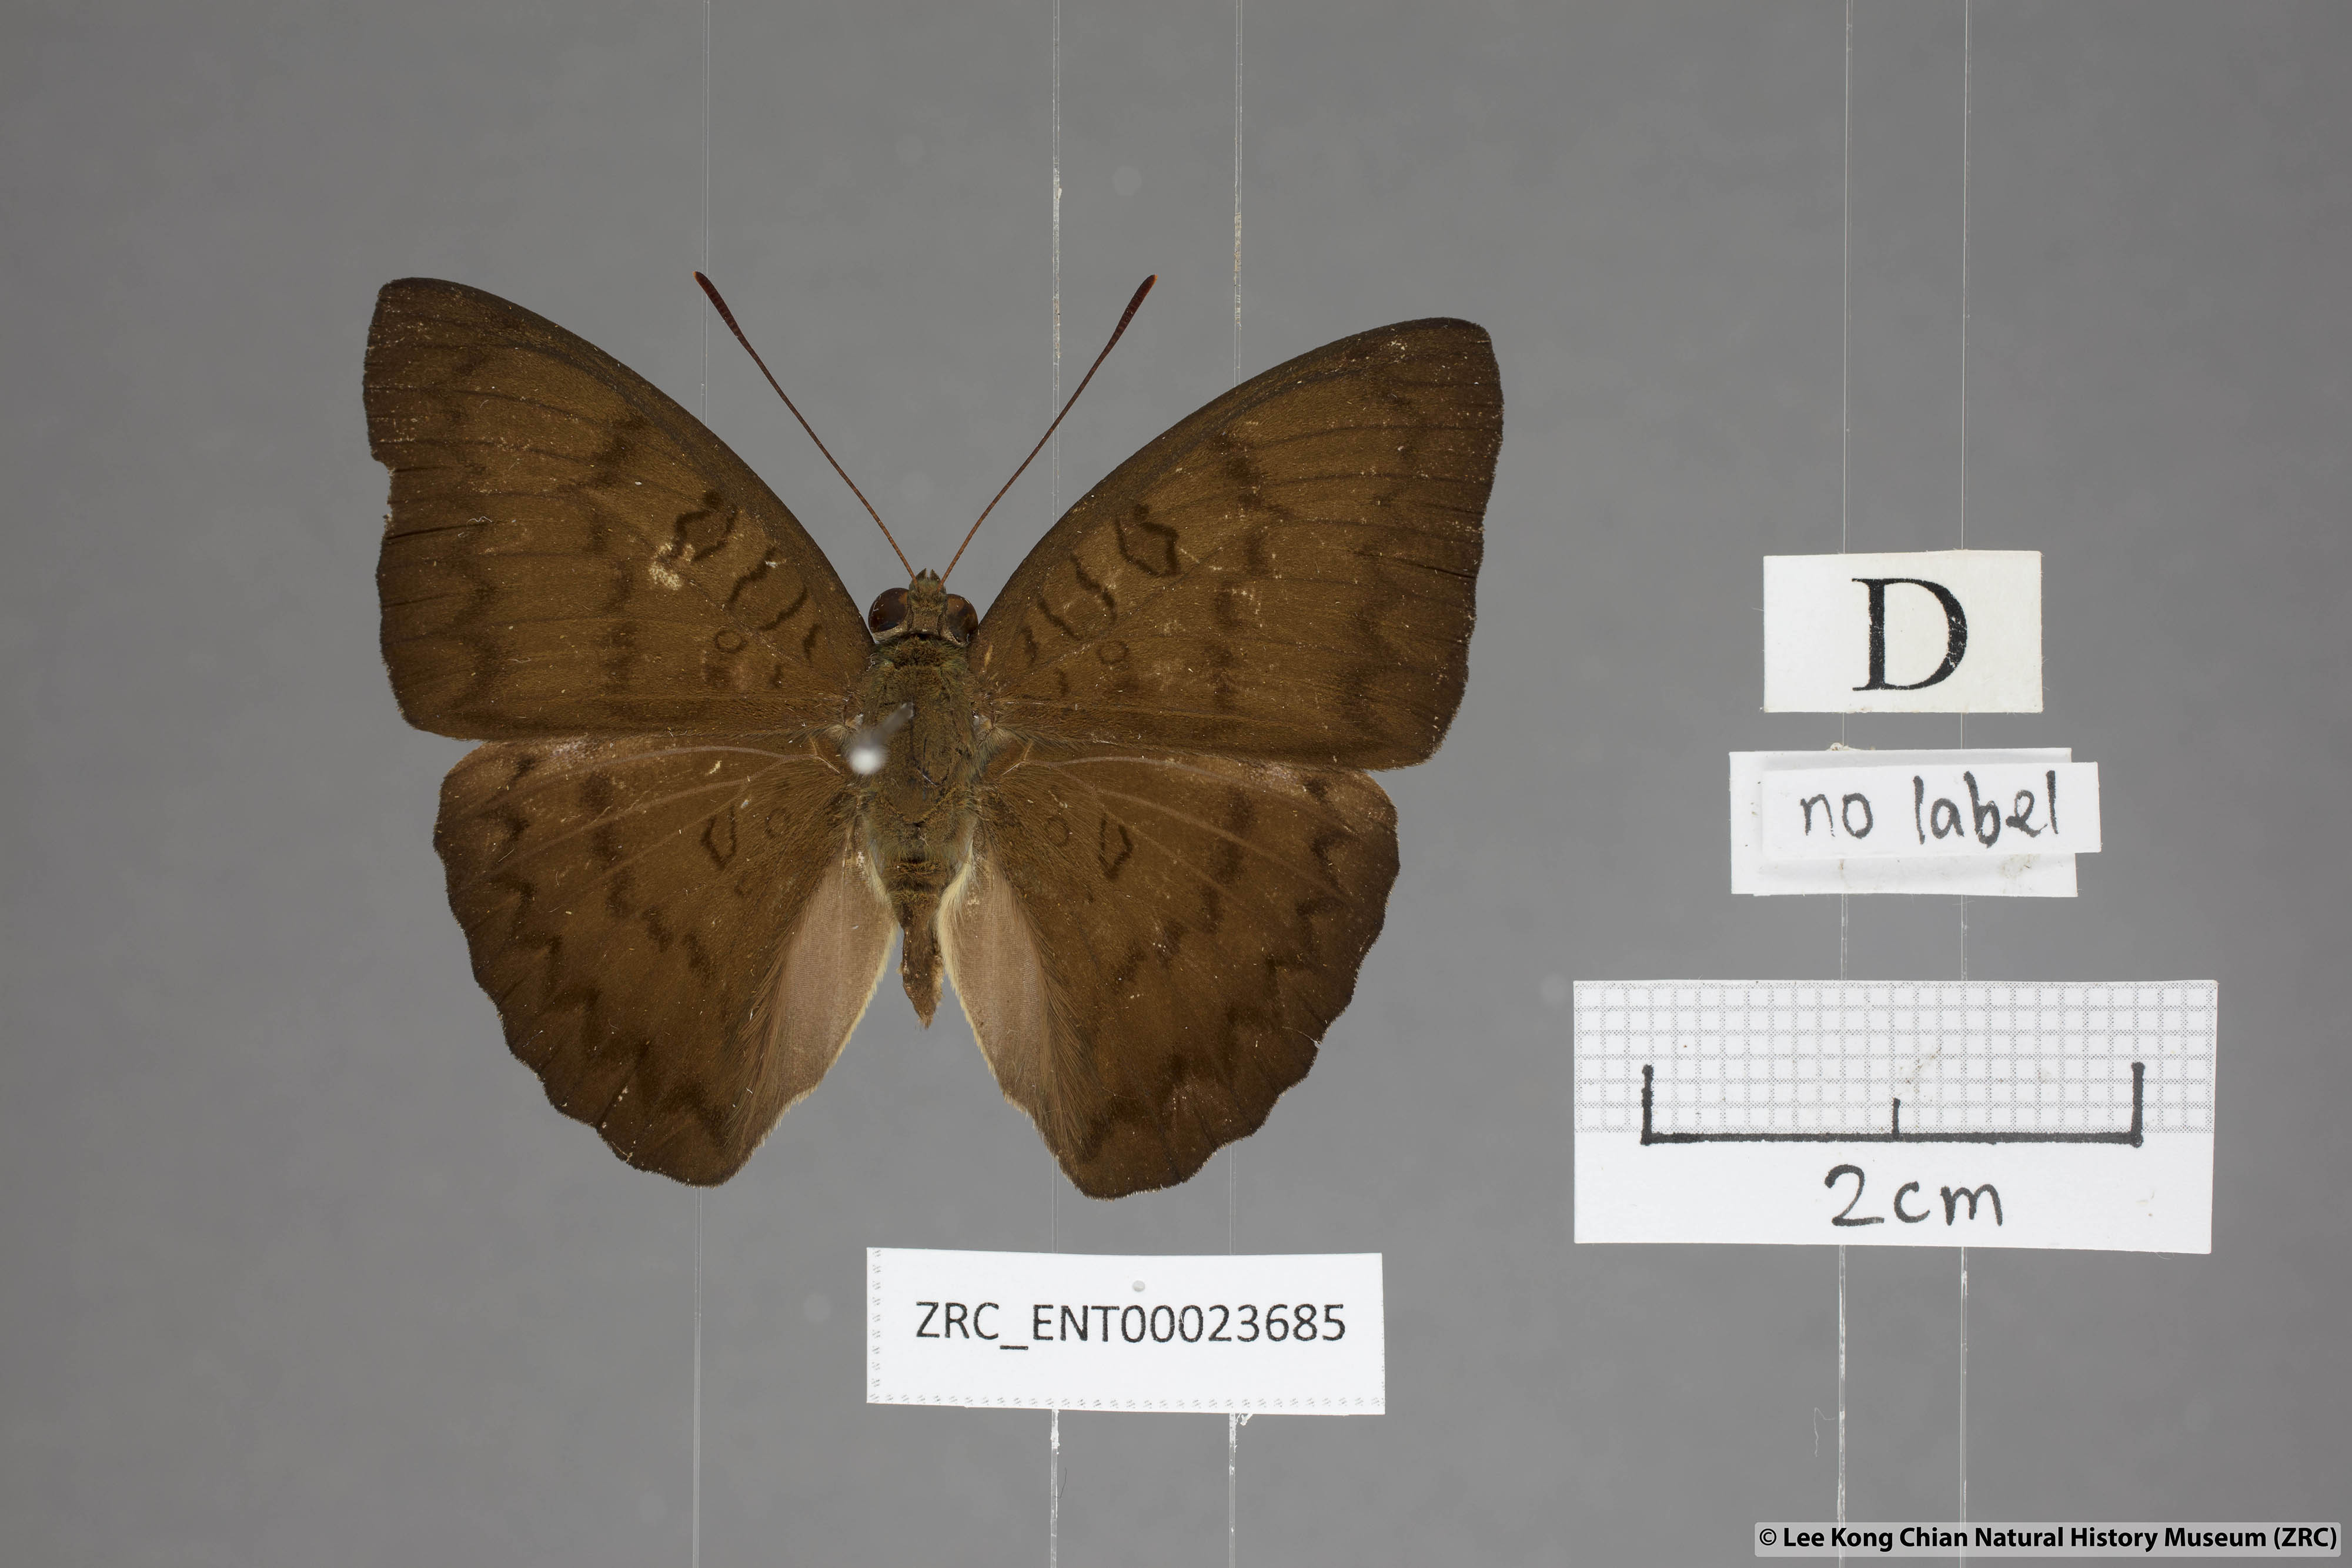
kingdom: Animalia
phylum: Arthropoda
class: Insecta
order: Lepidoptera
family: Nymphalidae
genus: Euthalia
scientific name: Euthalia kanda
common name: Yellow baron
